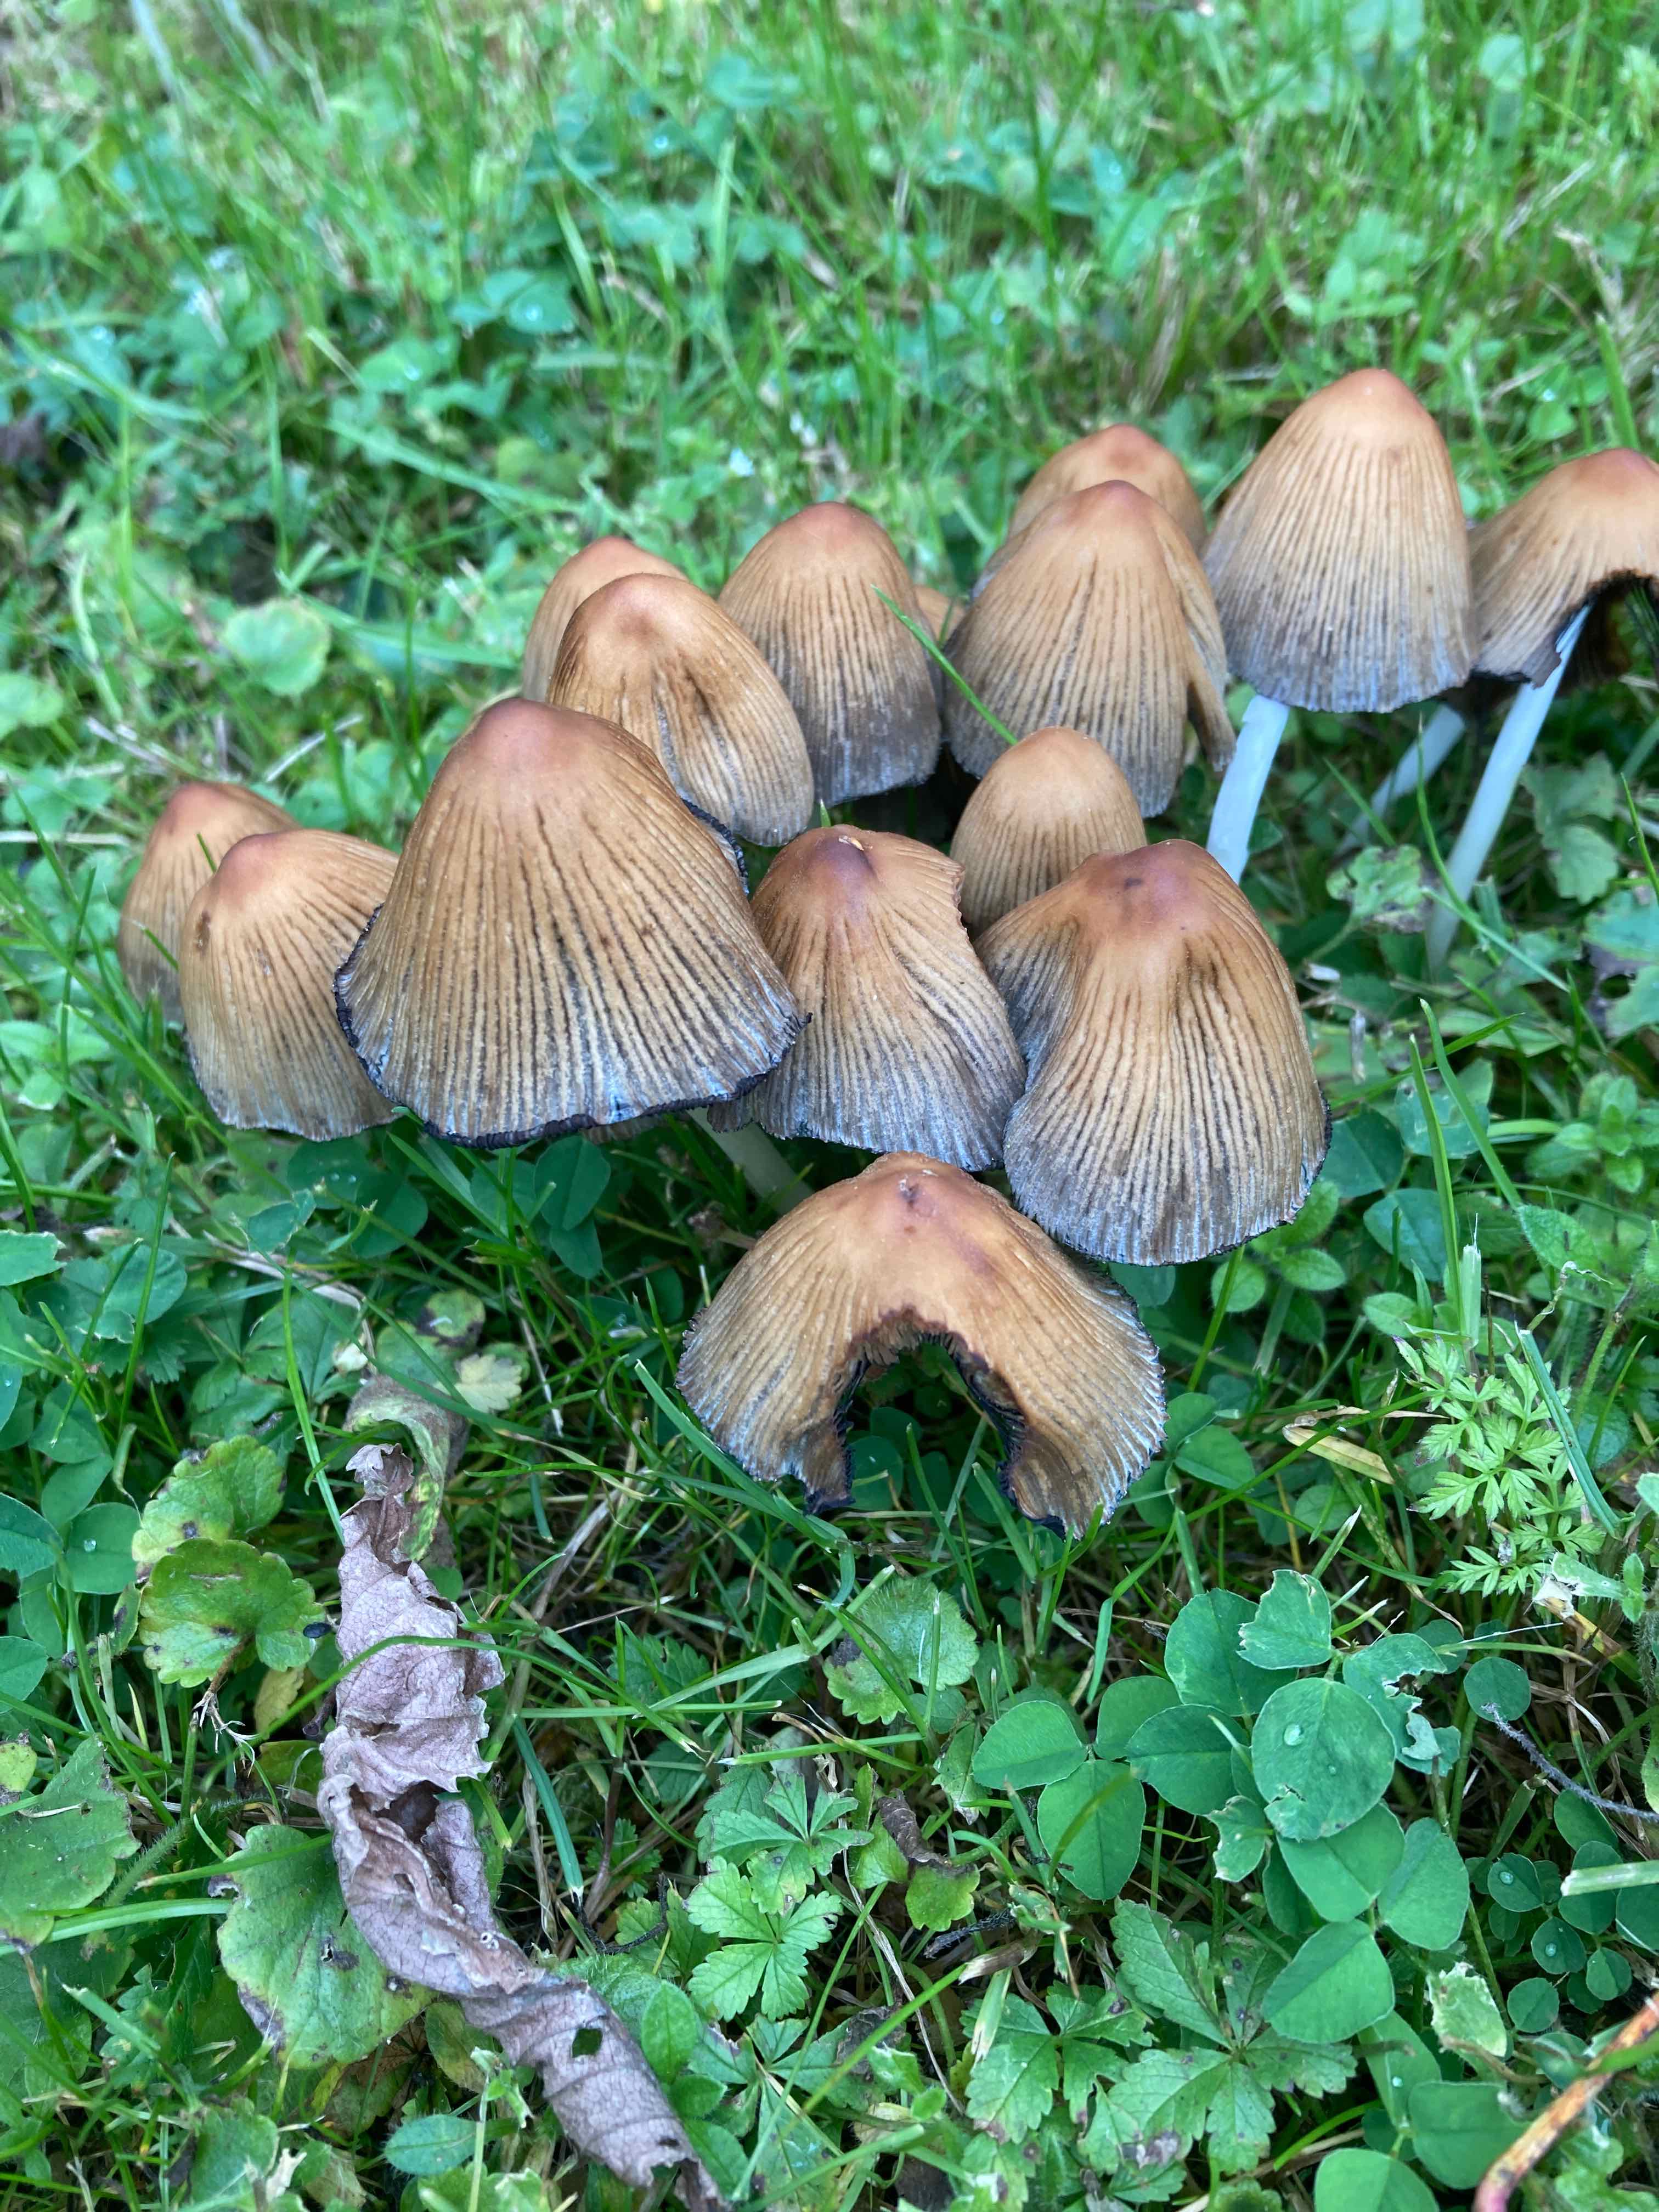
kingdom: Fungi
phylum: Basidiomycota
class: Agaricomycetes
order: Agaricales
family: Psathyrellaceae
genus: Coprinellus
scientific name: Coprinellus
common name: blækhat
